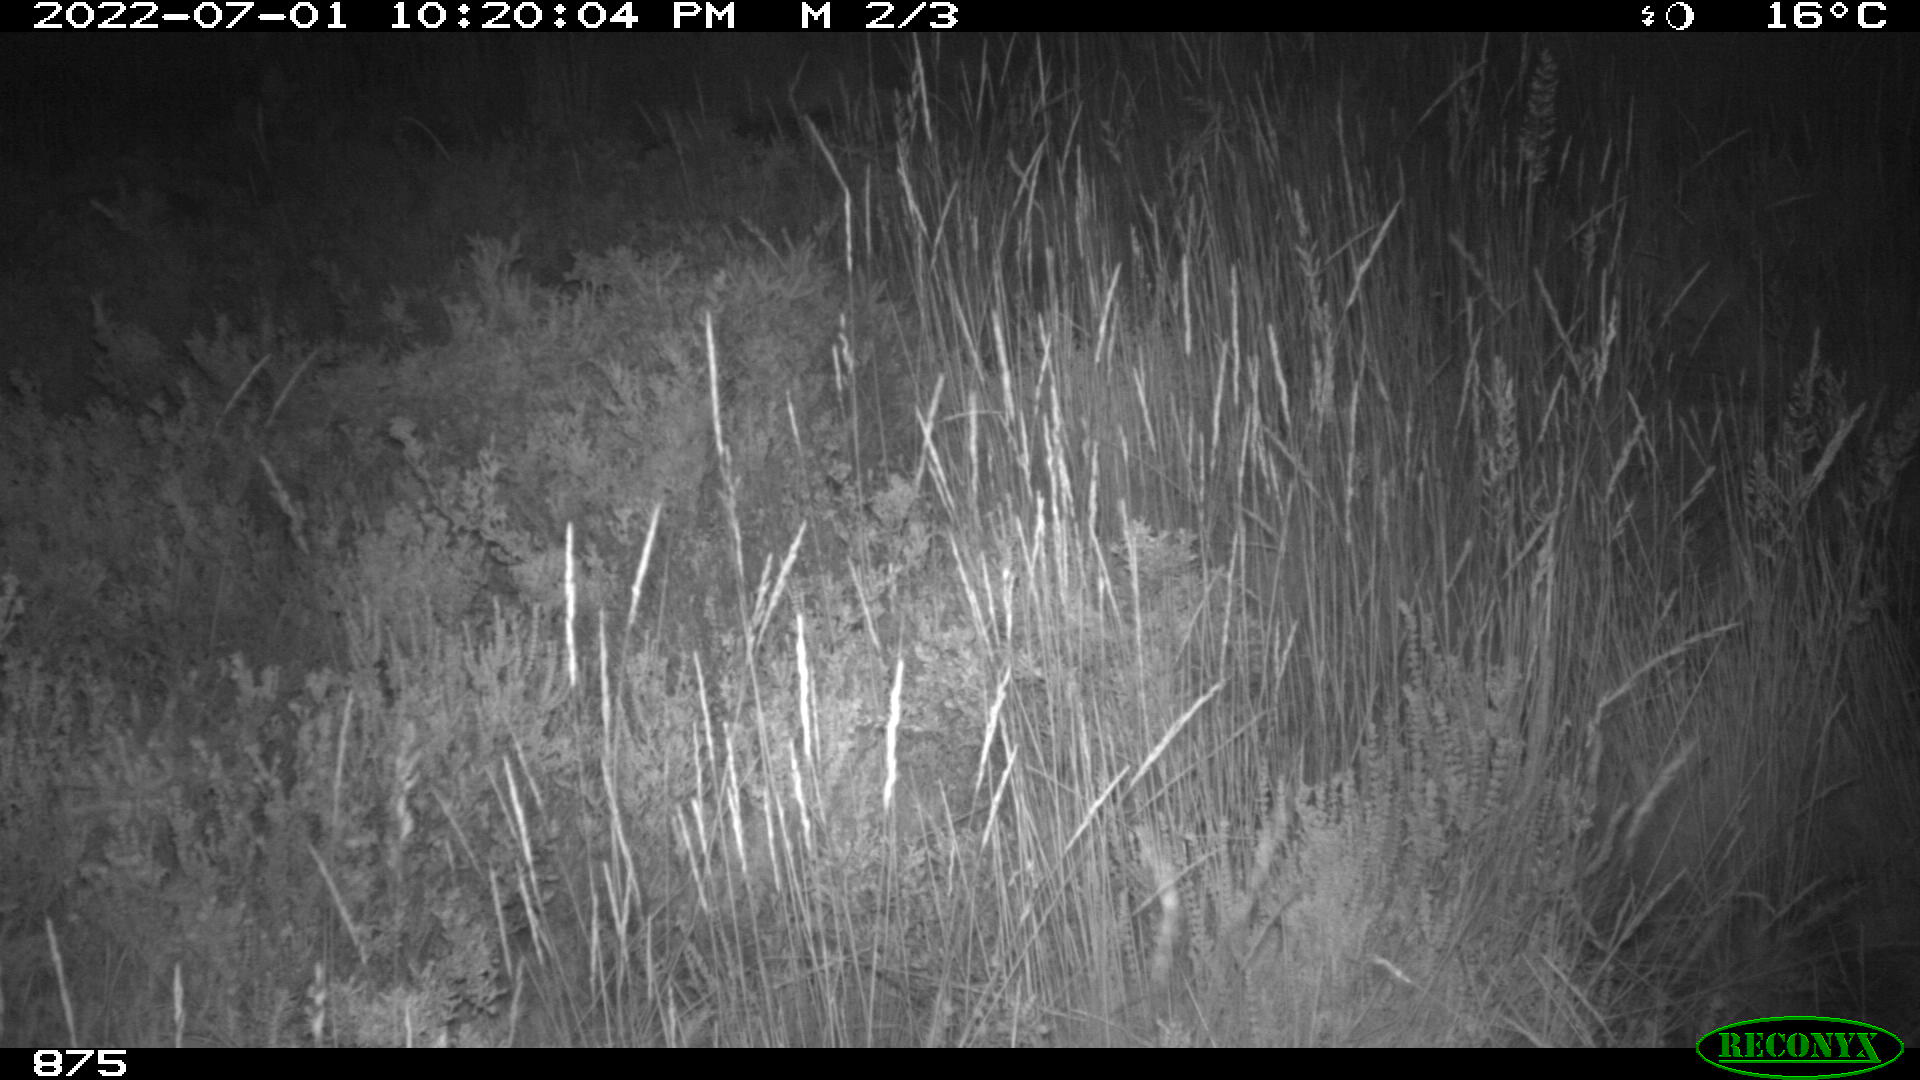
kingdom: Animalia
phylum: Chordata
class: Mammalia
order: Artiodactyla
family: Suidae
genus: Sus
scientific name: Sus scrofa
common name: Wild boar
